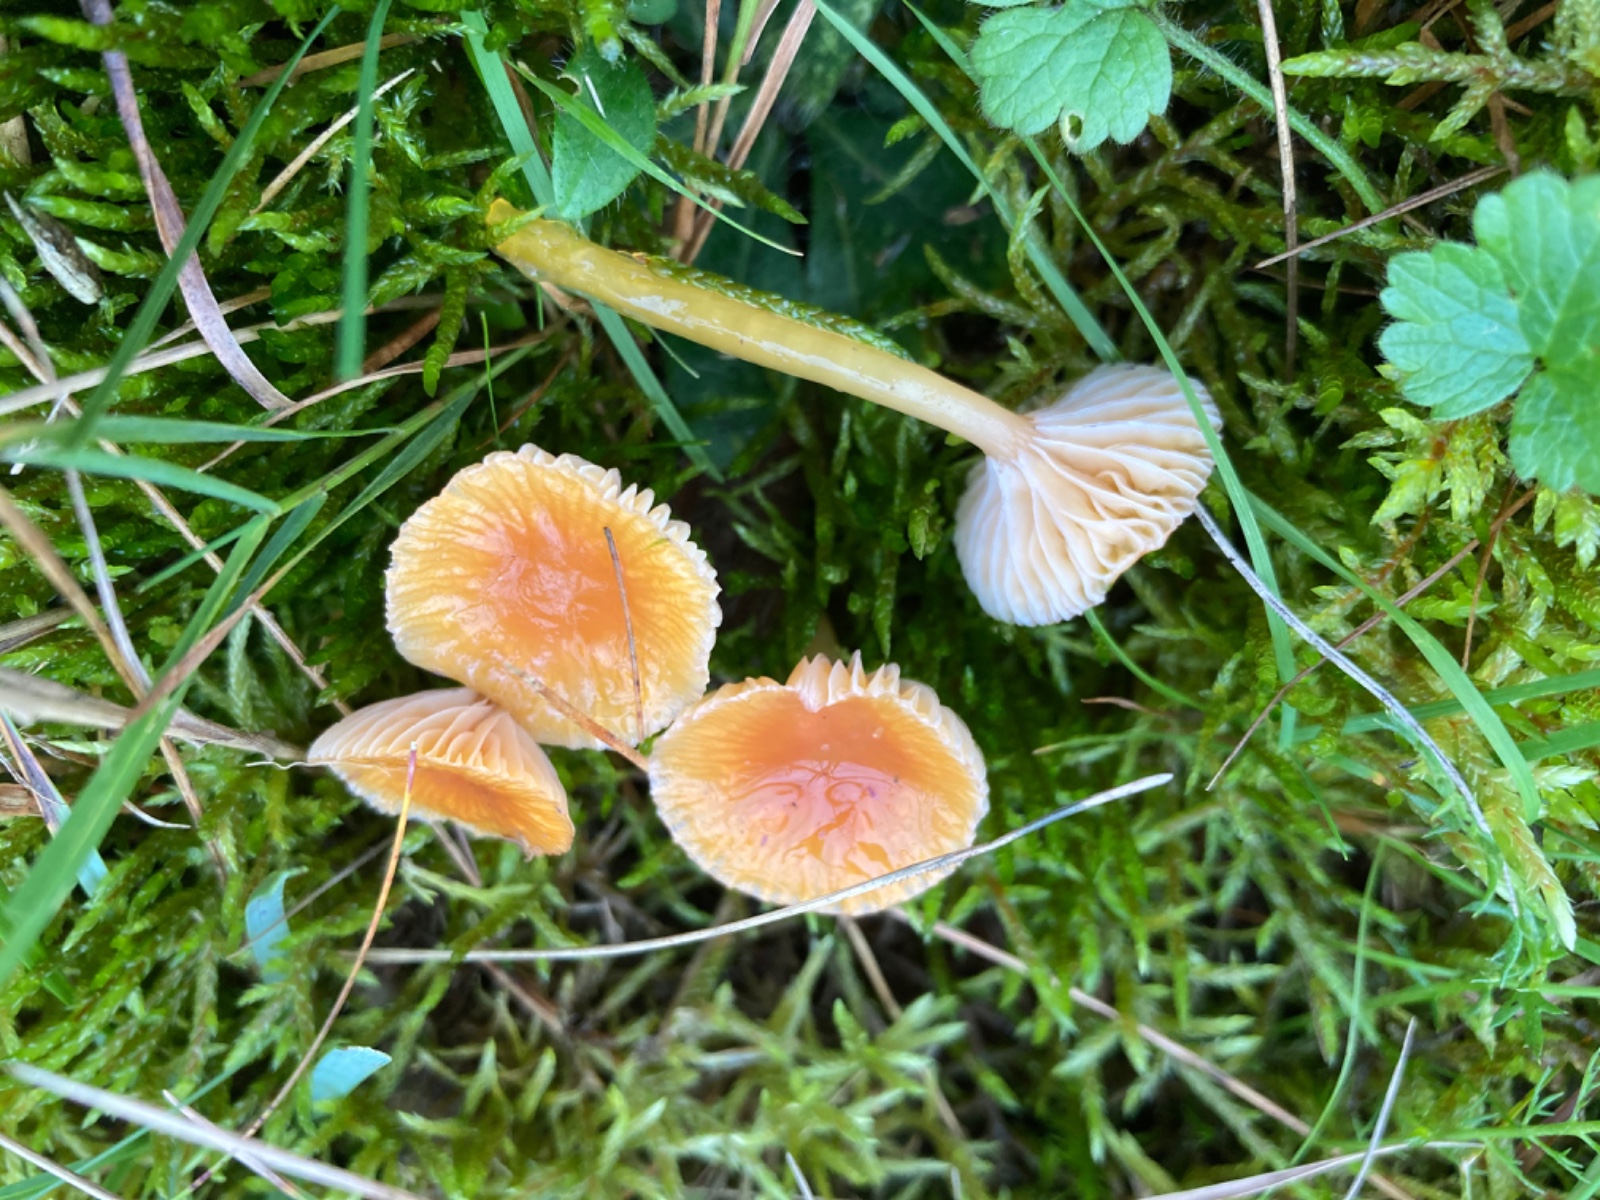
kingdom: Fungi
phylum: Basidiomycota
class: Agaricomycetes
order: Agaricales
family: Hygrophoraceae
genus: Gliophorus
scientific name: Gliophorus laetus
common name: brusk-vokshat
